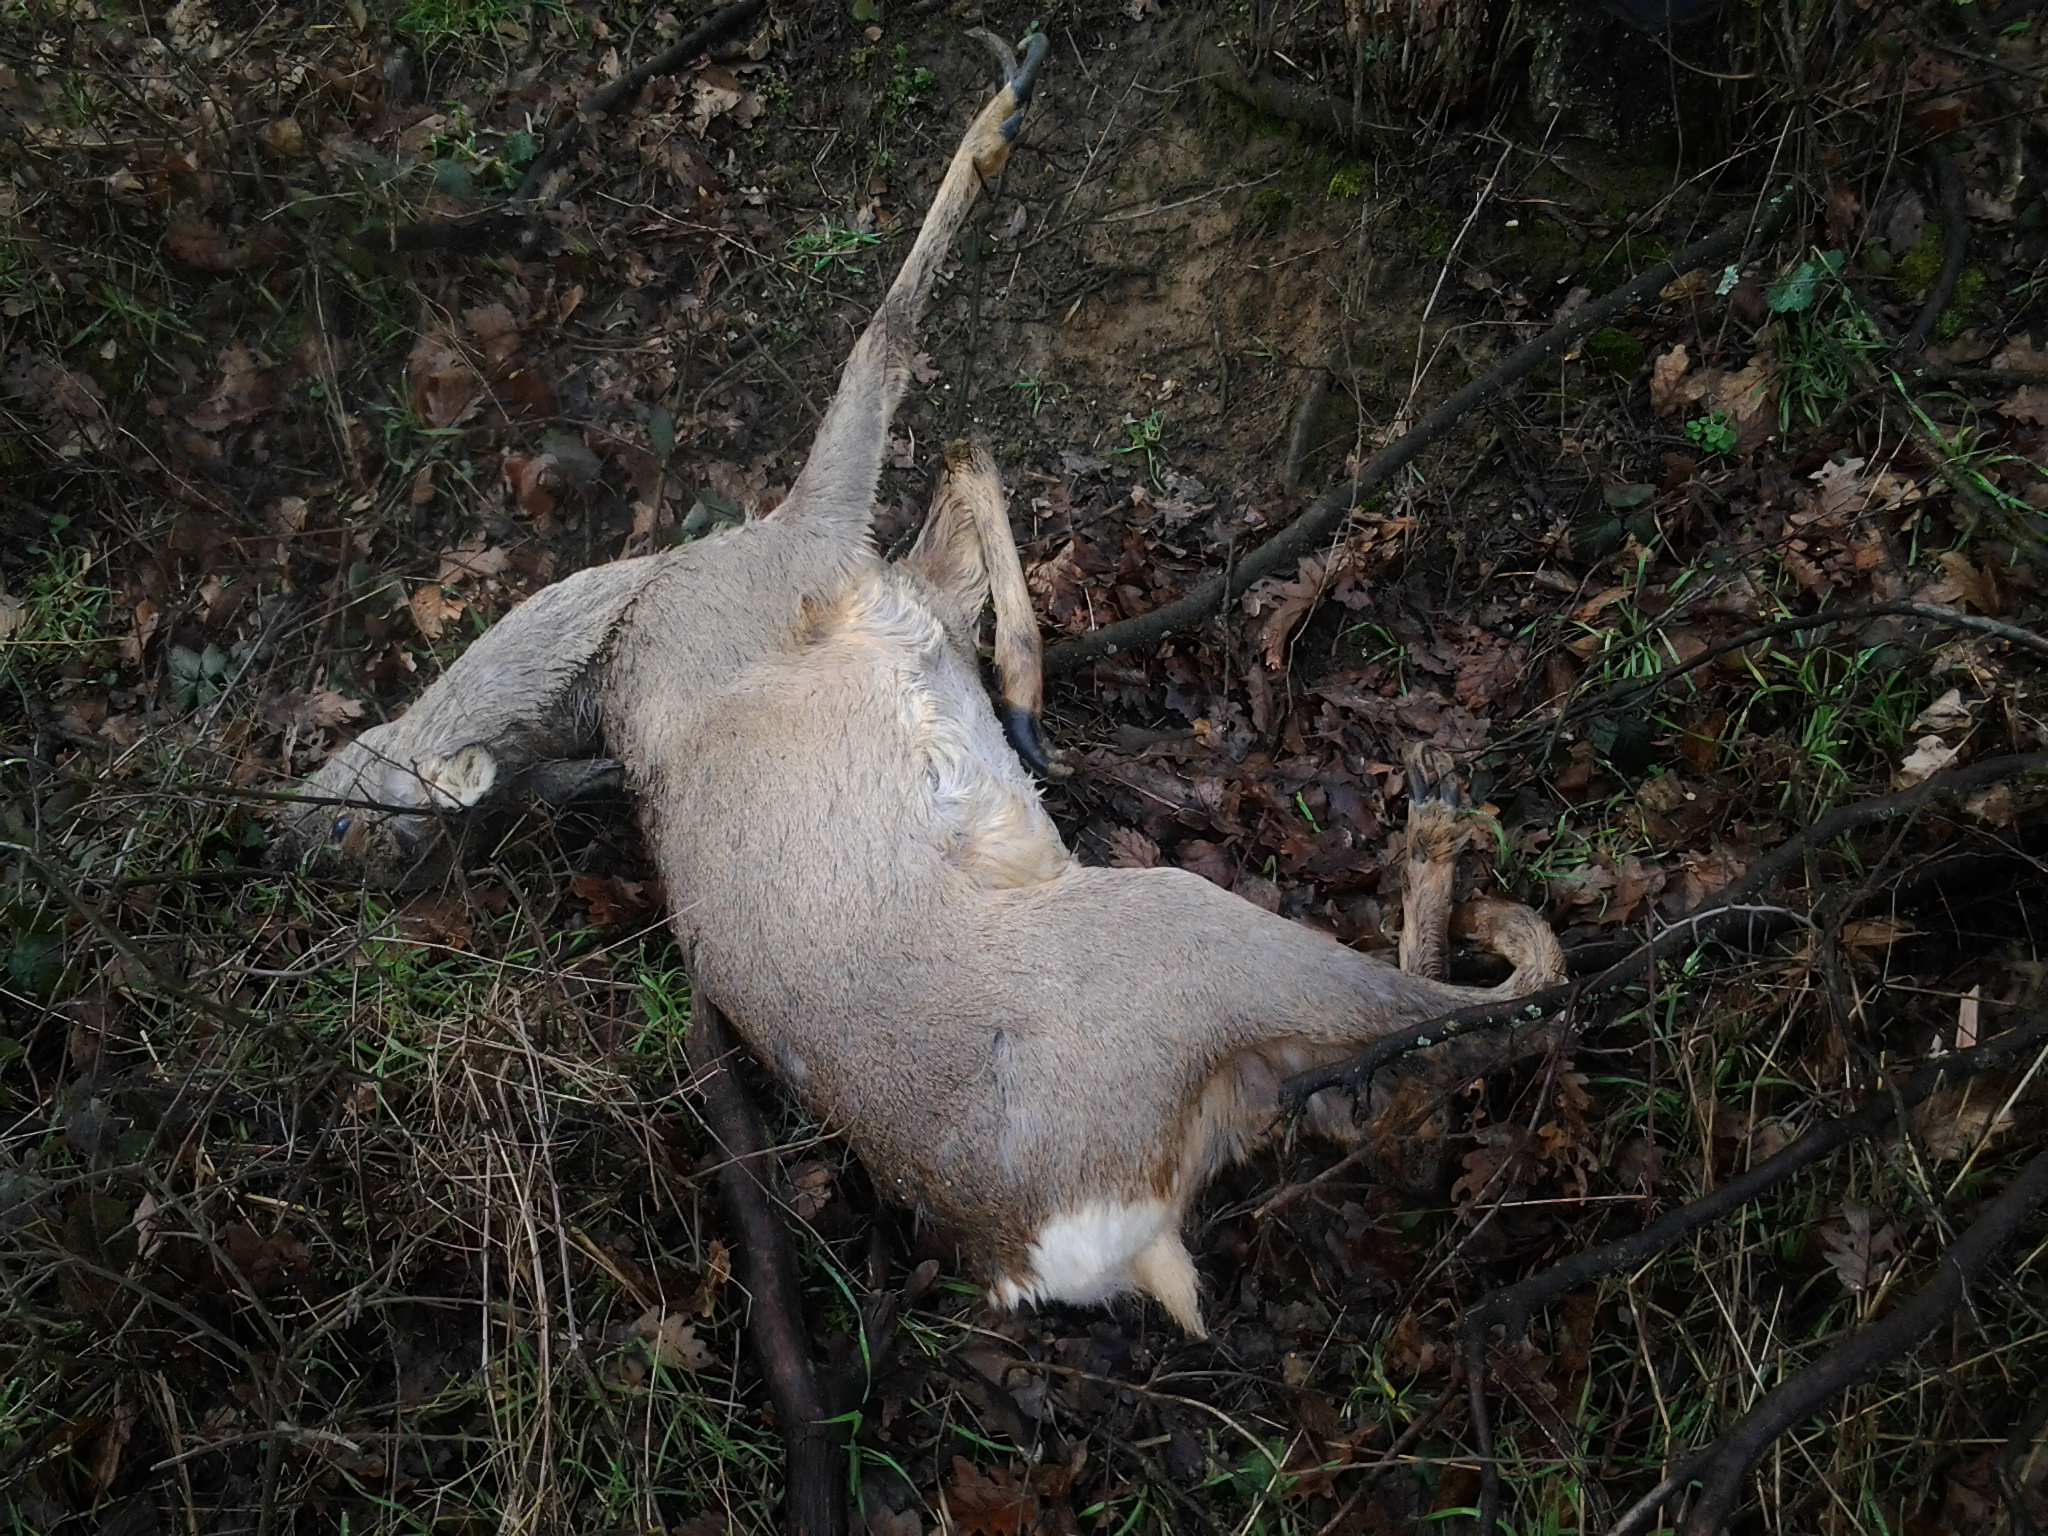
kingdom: Animalia
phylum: Chordata
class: Mammalia
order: Artiodactyla
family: Cervidae
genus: Capreolus
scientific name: Capreolus capreolus
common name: Western roe deer
